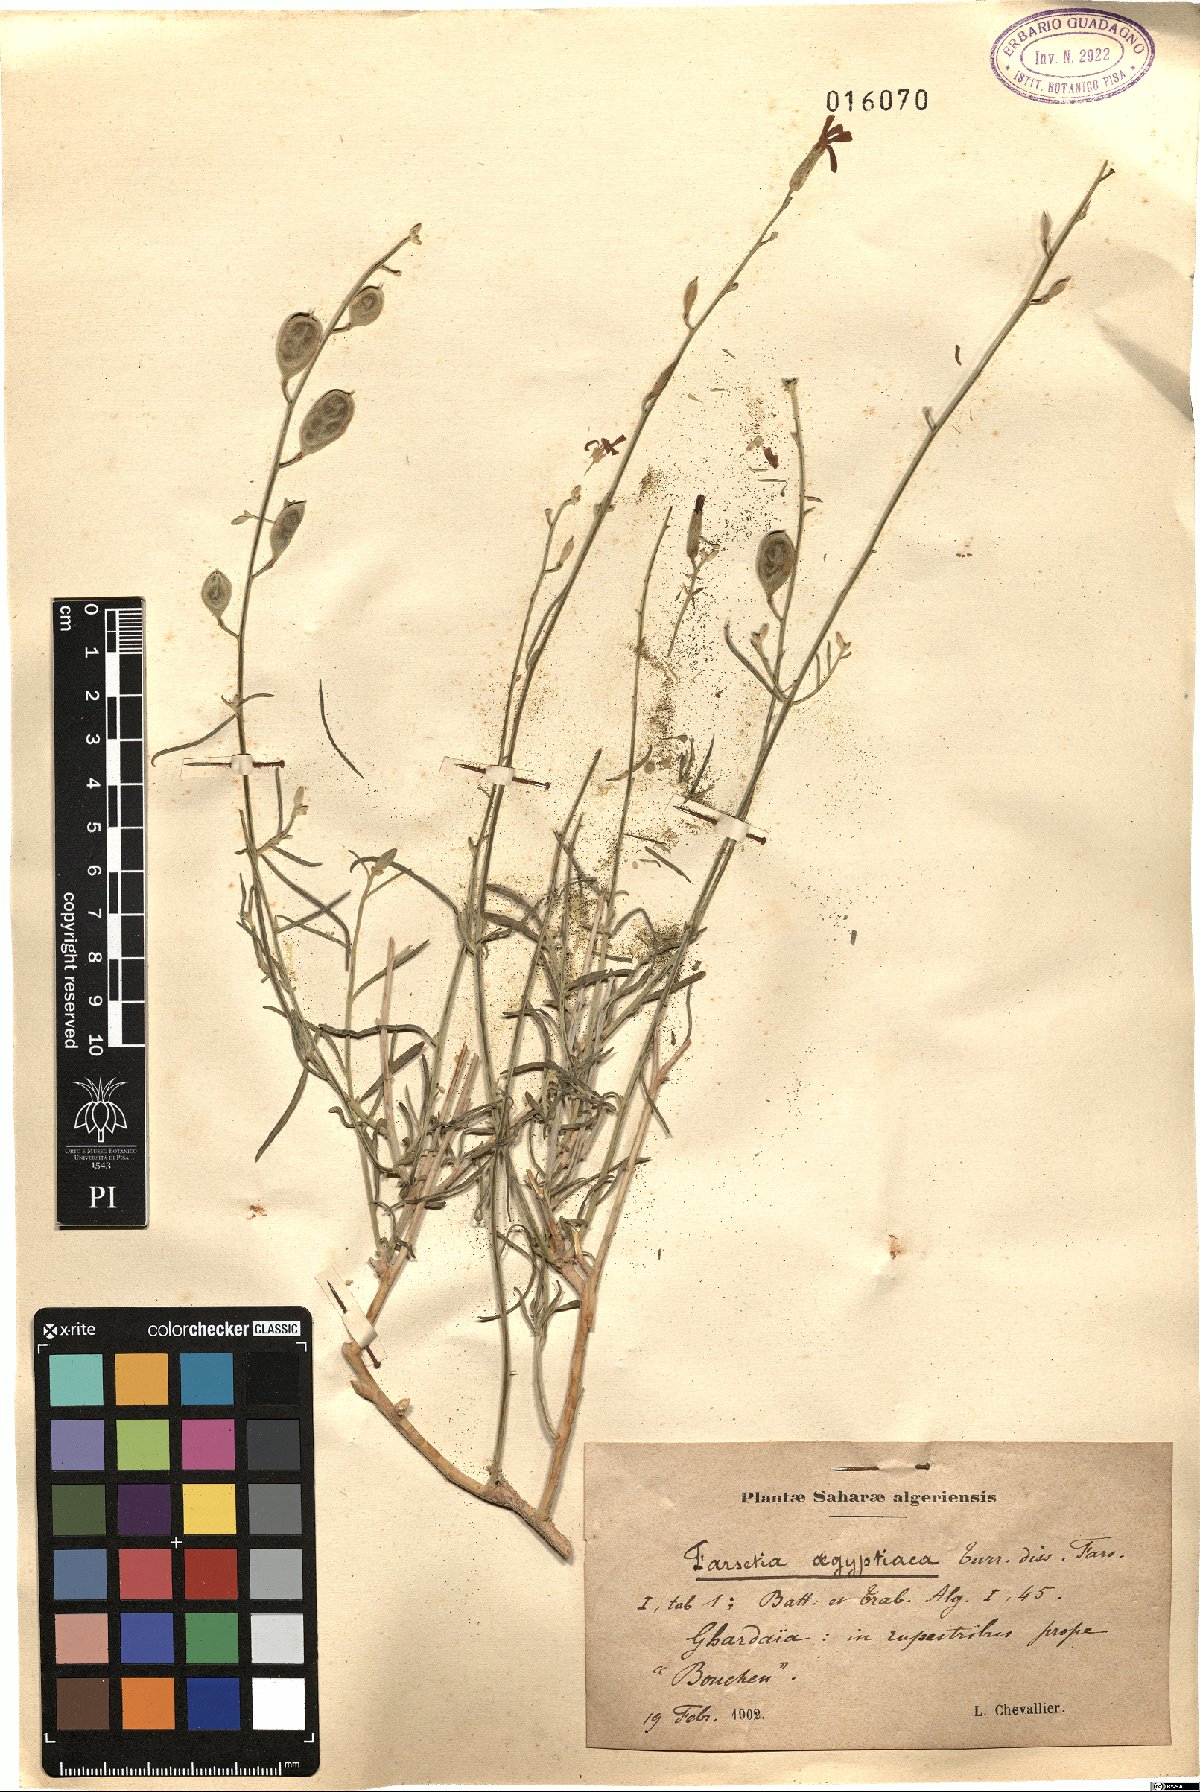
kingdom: Plantae
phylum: Tracheophyta
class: Magnoliopsida
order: Brassicales
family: Brassicaceae
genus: Farsetia
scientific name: Farsetia aegyptia
